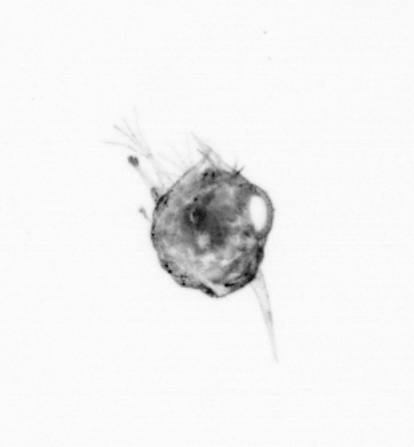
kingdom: Animalia
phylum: Arthropoda
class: Malacostraca
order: Decapoda
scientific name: Decapoda
